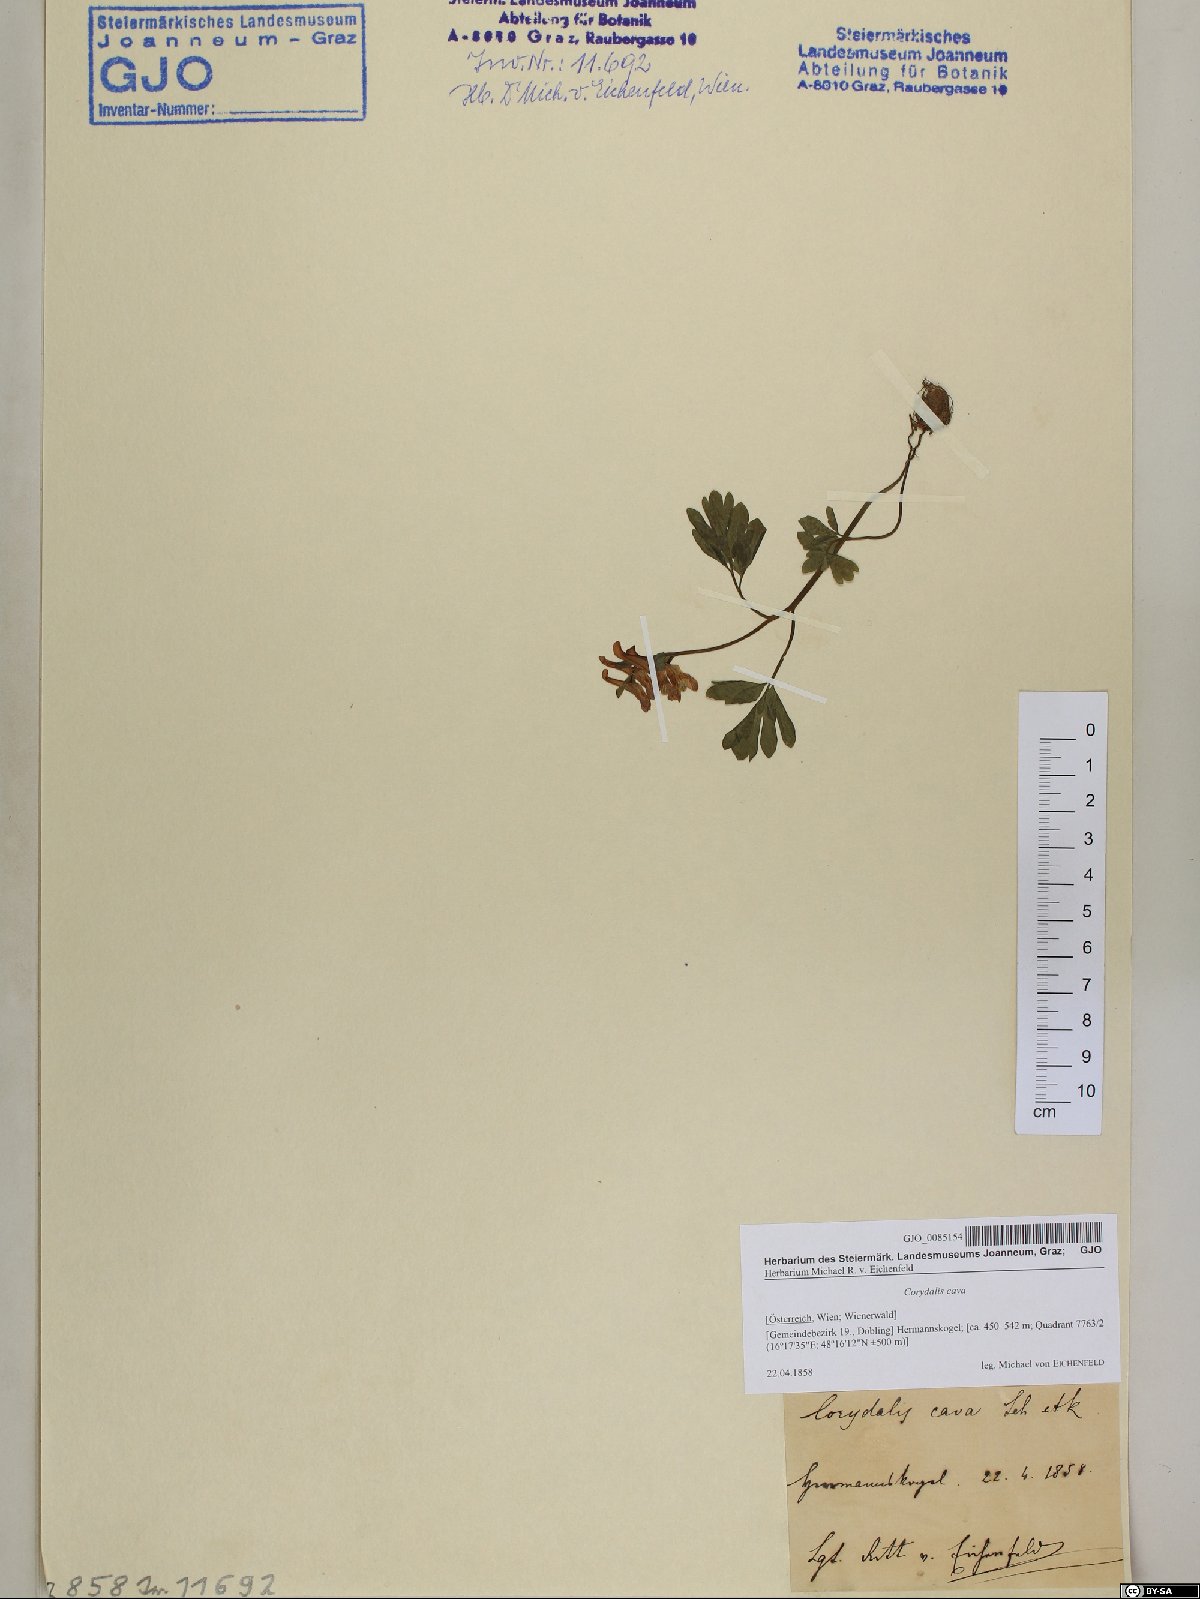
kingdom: Plantae
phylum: Tracheophyta
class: Magnoliopsida
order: Ranunculales
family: Papaveraceae
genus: Corydalis
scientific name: Corydalis cava
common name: Hollowroot
